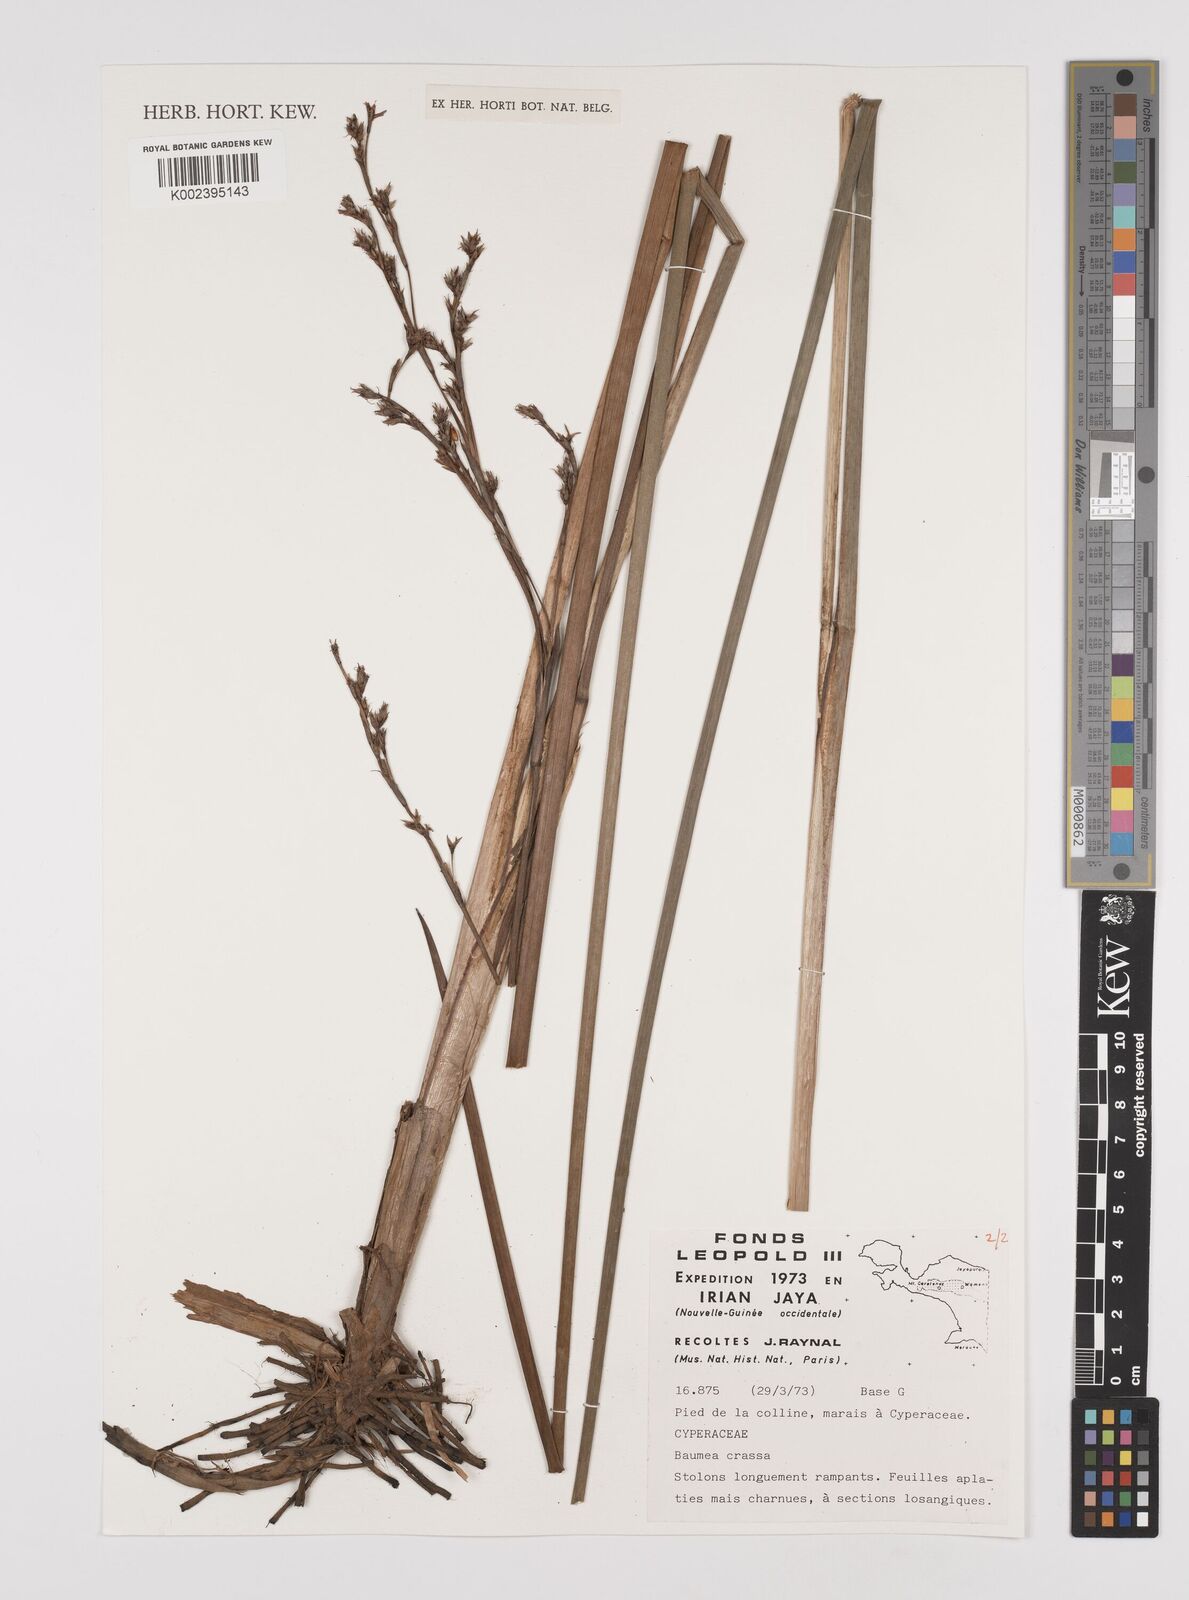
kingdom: Plantae
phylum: Tracheophyta
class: Liliopsida
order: Poales
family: Cyperaceae
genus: Machaerina
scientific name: Machaerina rubiginosa
